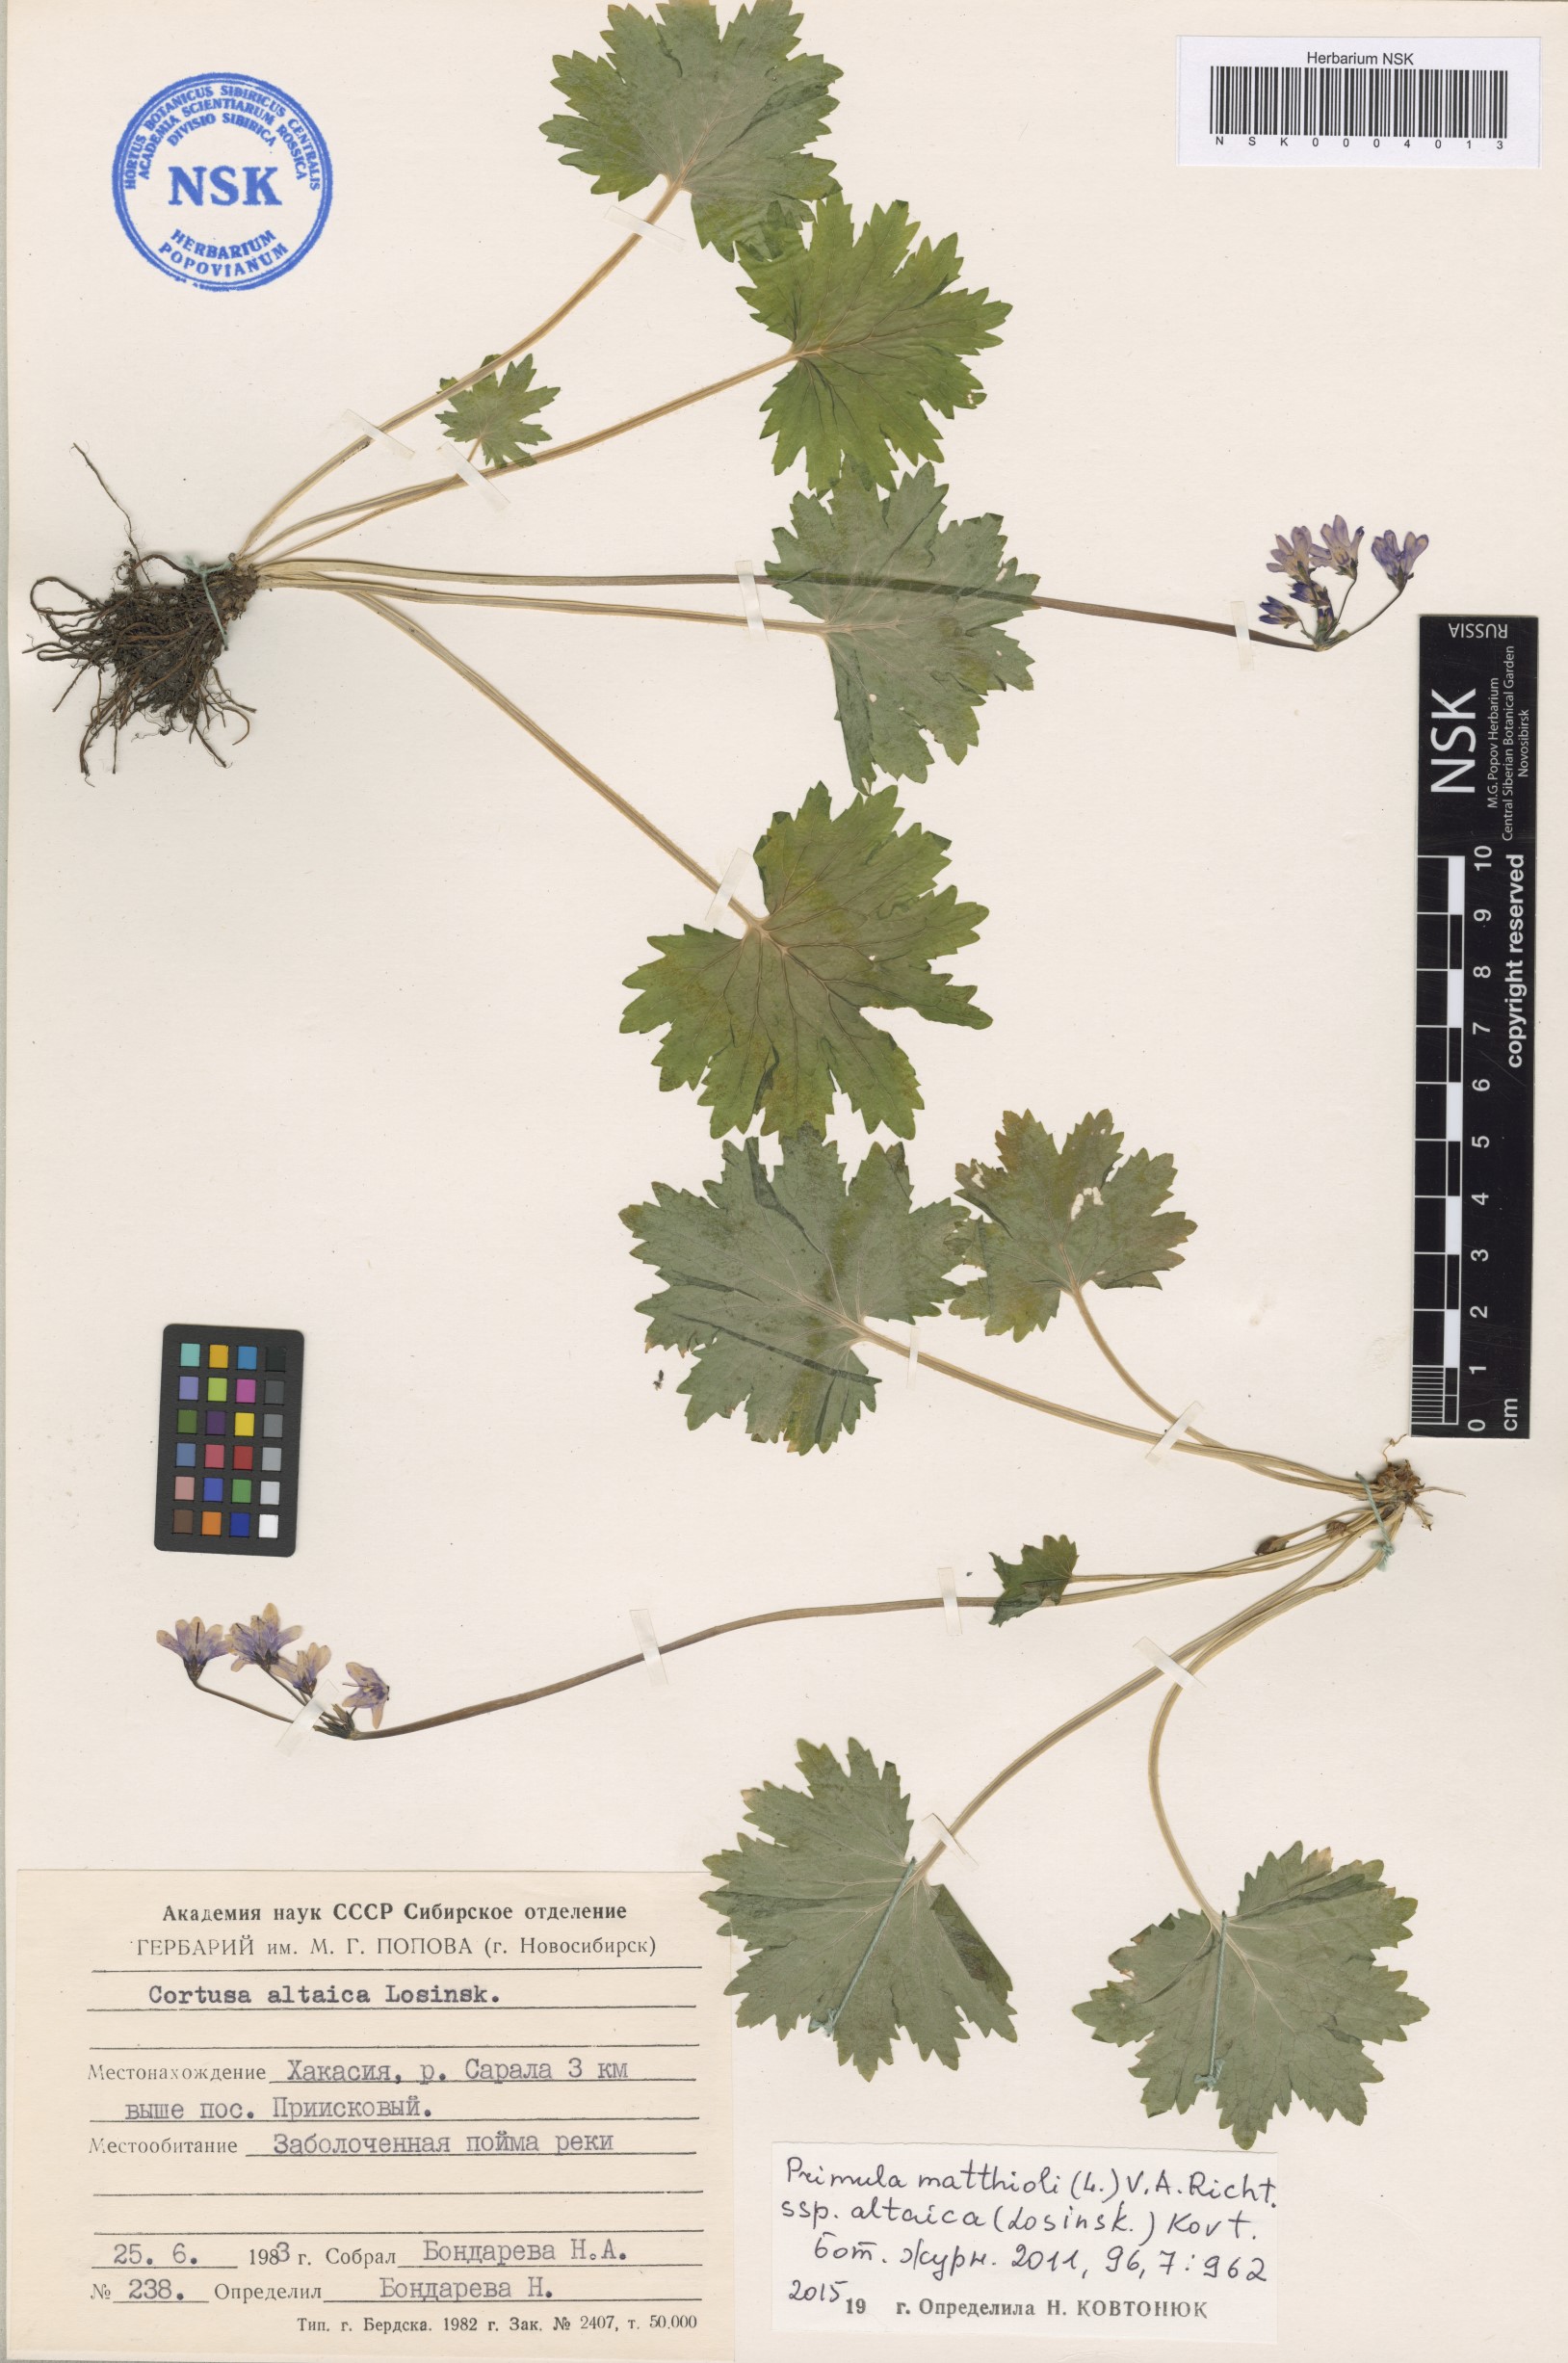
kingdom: Plantae
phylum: Tracheophyta
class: Magnoliopsida
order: Ericales
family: Primulaceae
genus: Primula
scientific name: Primula matthioli
